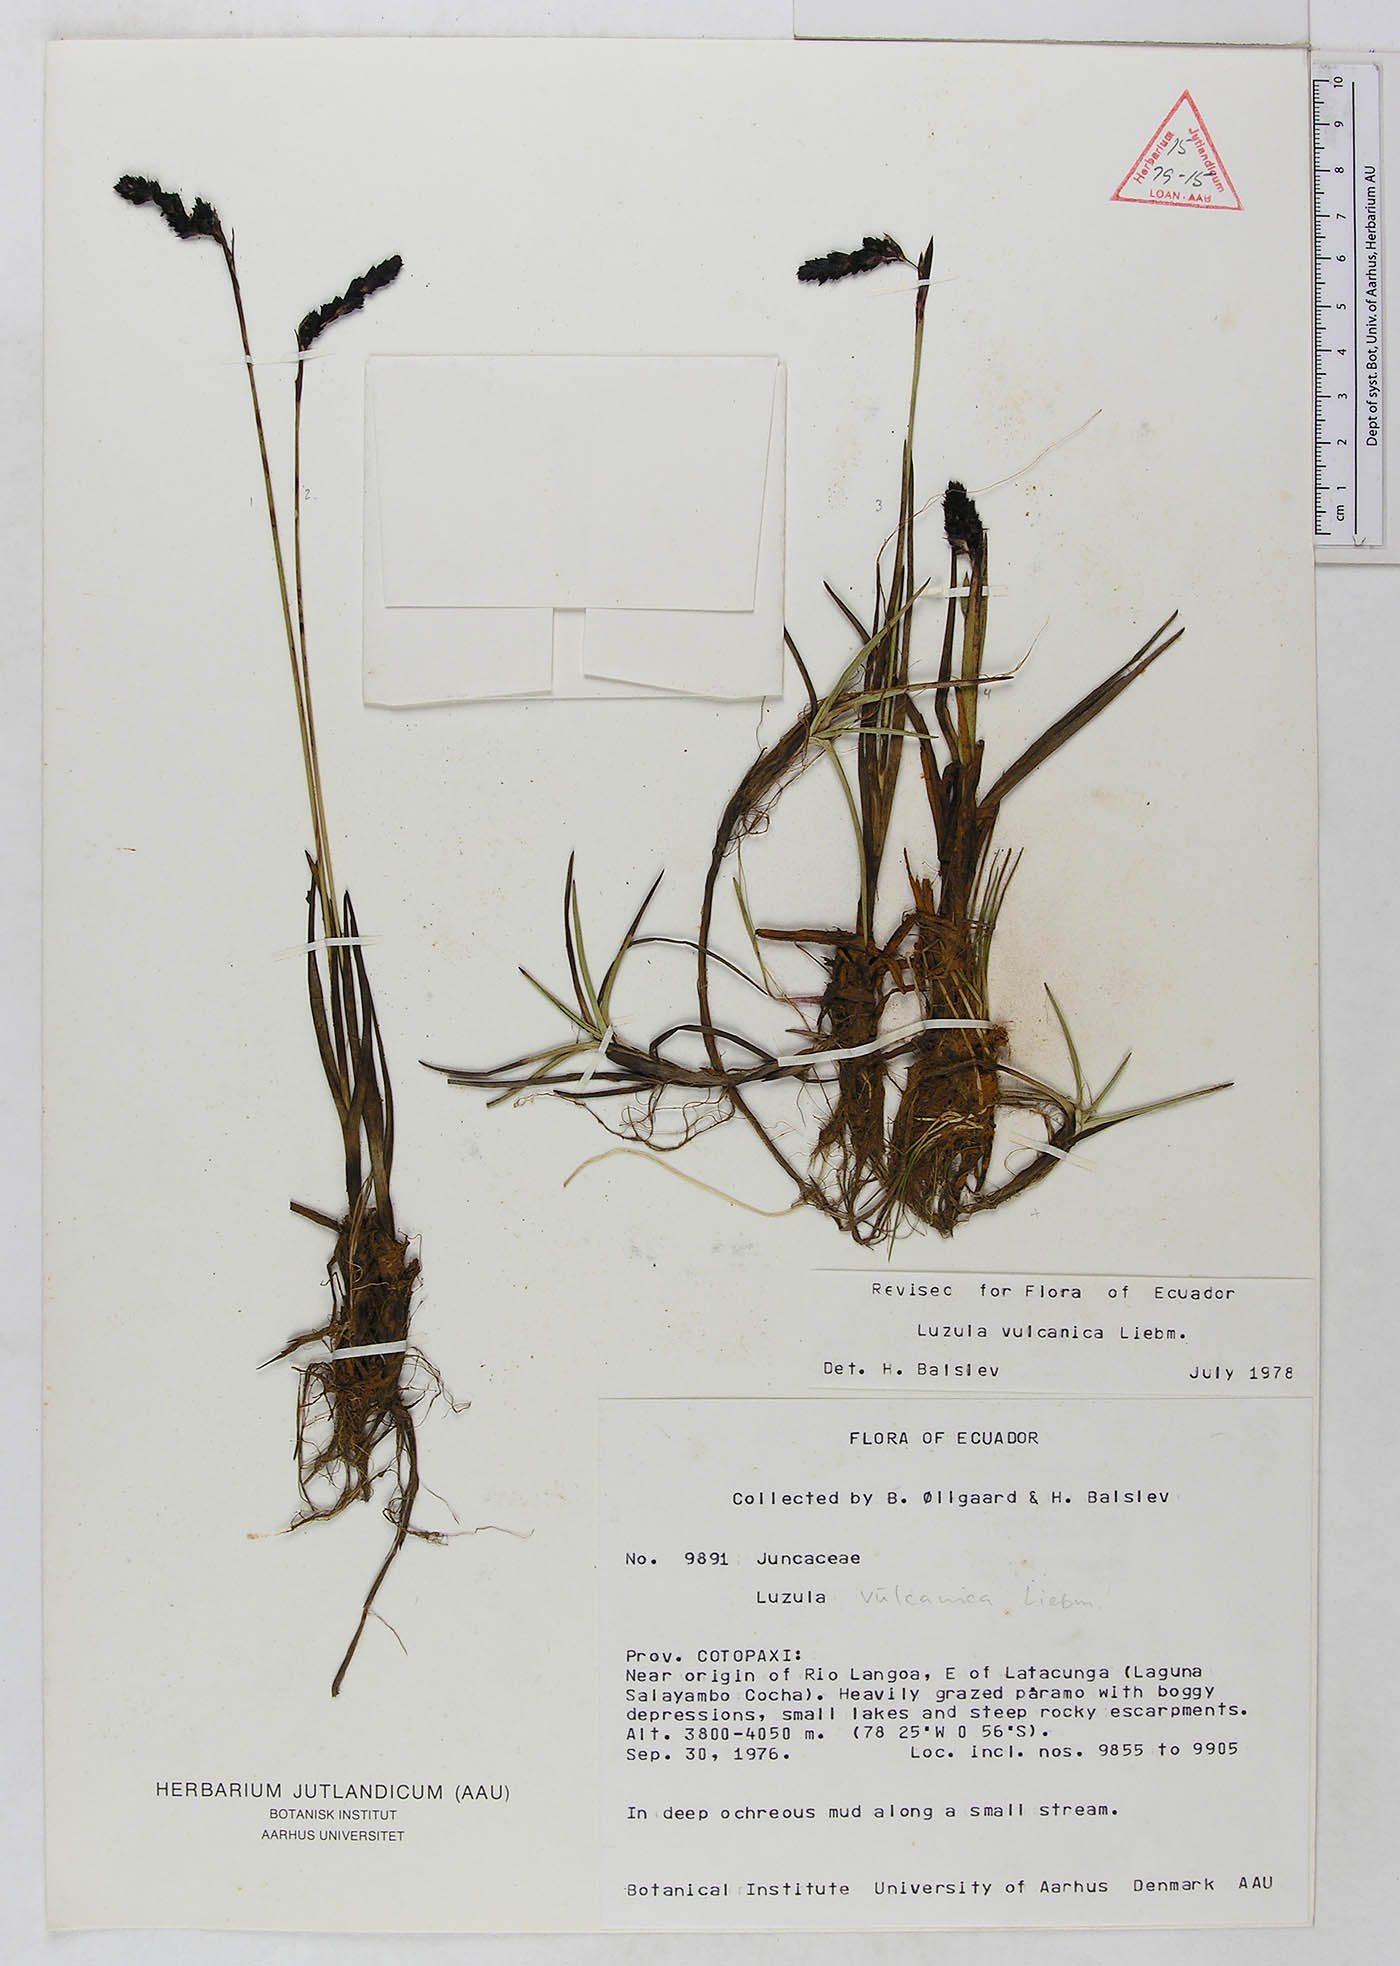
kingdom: Plantae
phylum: Tracheophyta
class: Liliopsida
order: Poales
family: Juncaceae
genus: Luzula
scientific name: Luzula vulcanica
